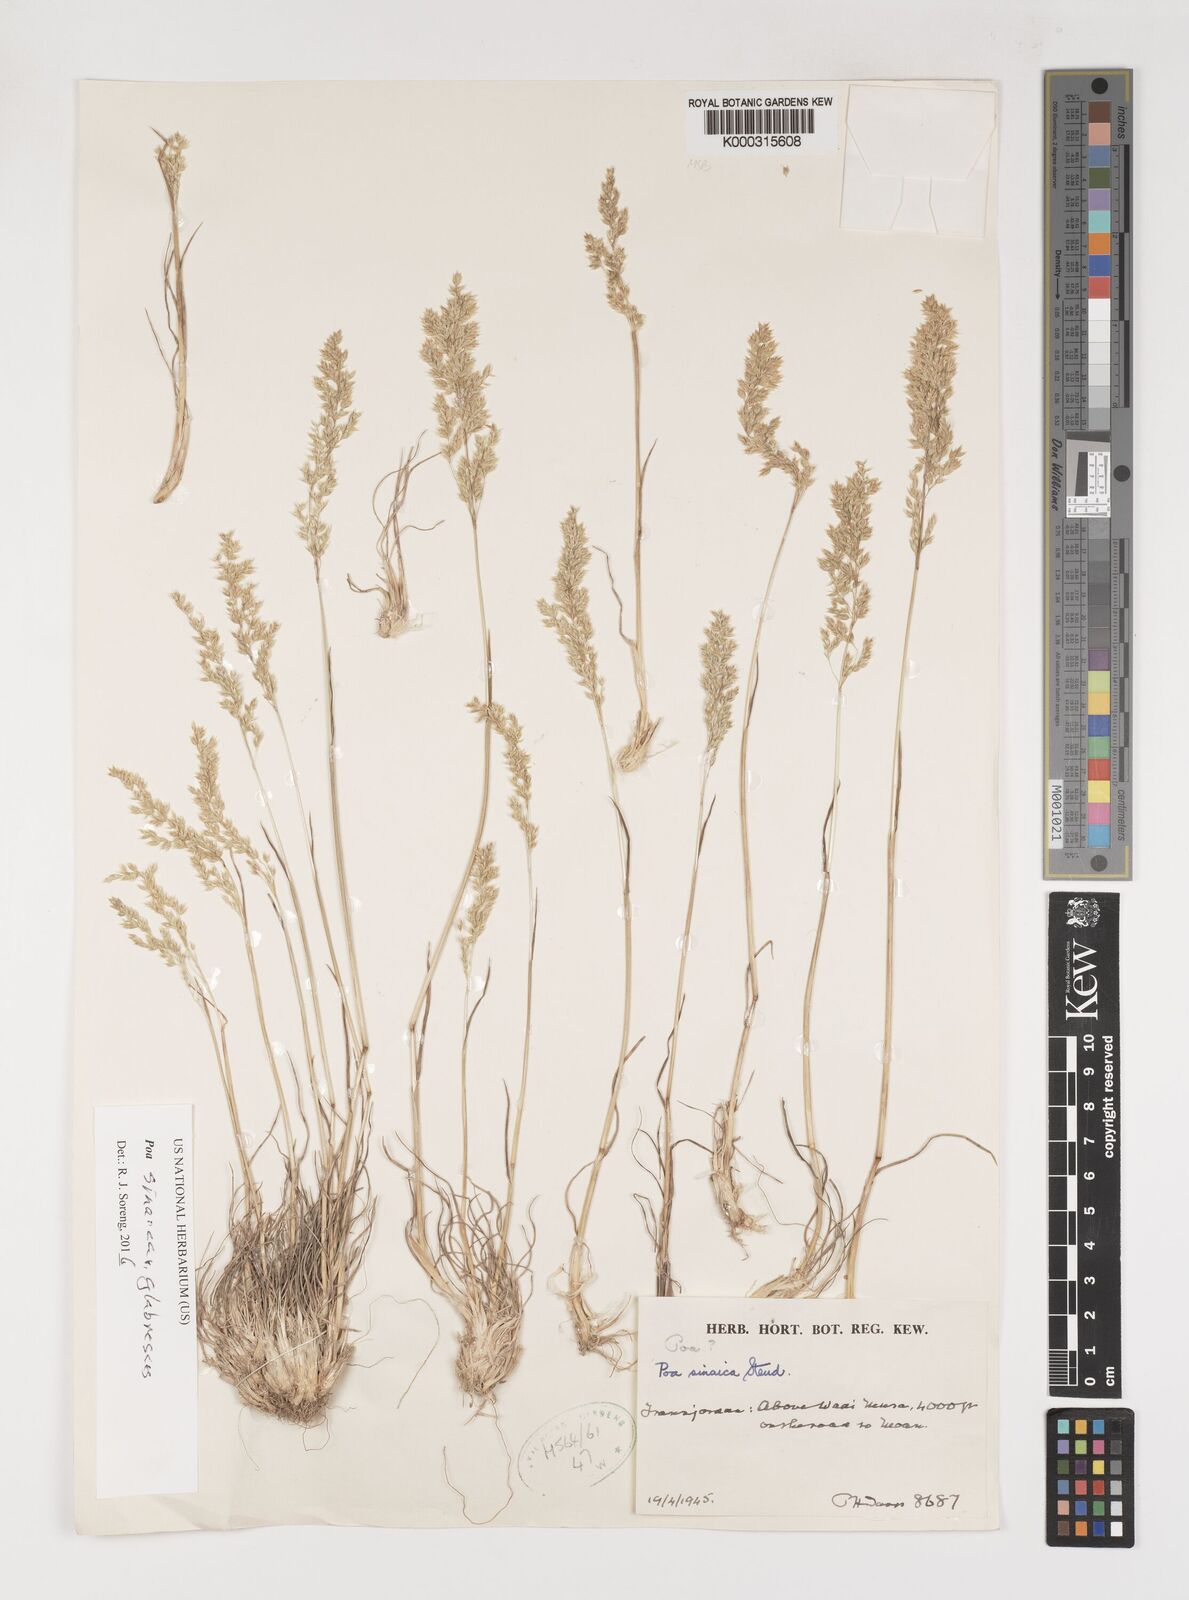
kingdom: Plantae
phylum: Tracheophyta
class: Liliopsida
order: Poales
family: Poaceae
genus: Poa
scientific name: Poa sinaica
